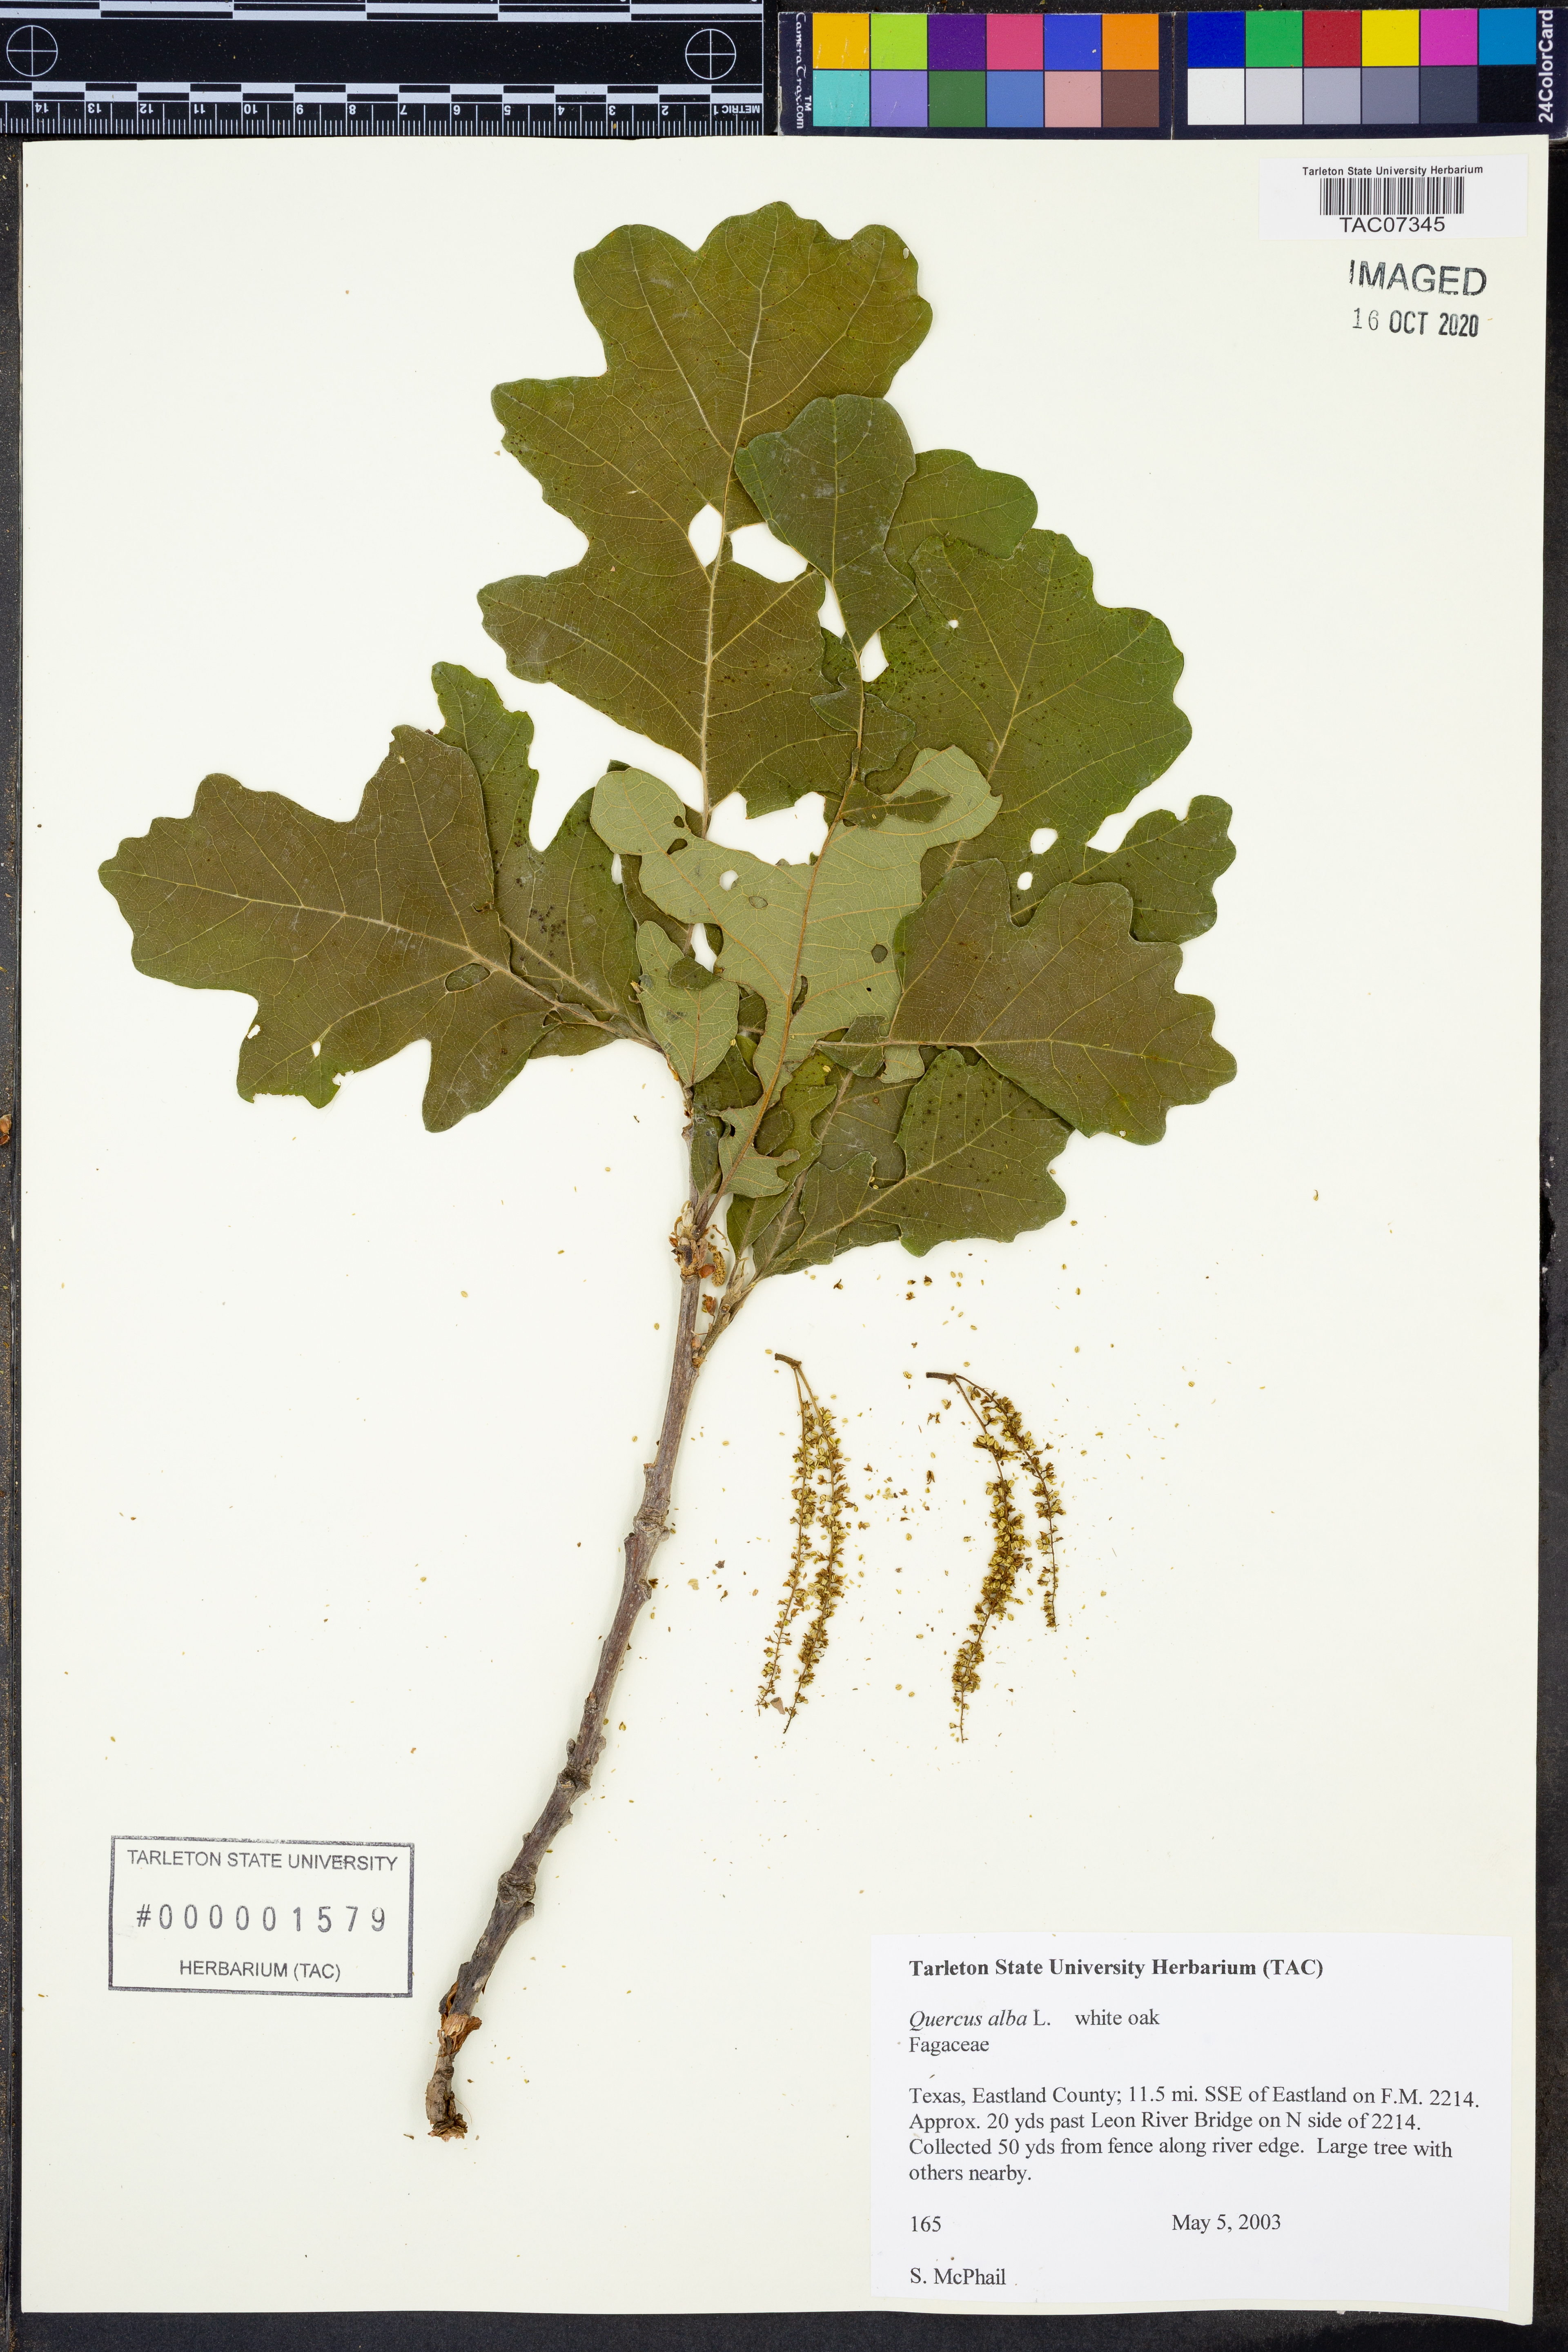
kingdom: Plantae
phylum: Tracheophyta
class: Magnoliopsida
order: Fagales
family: Fagaceae
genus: Quercus
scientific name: Quercus alba
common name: White oak
